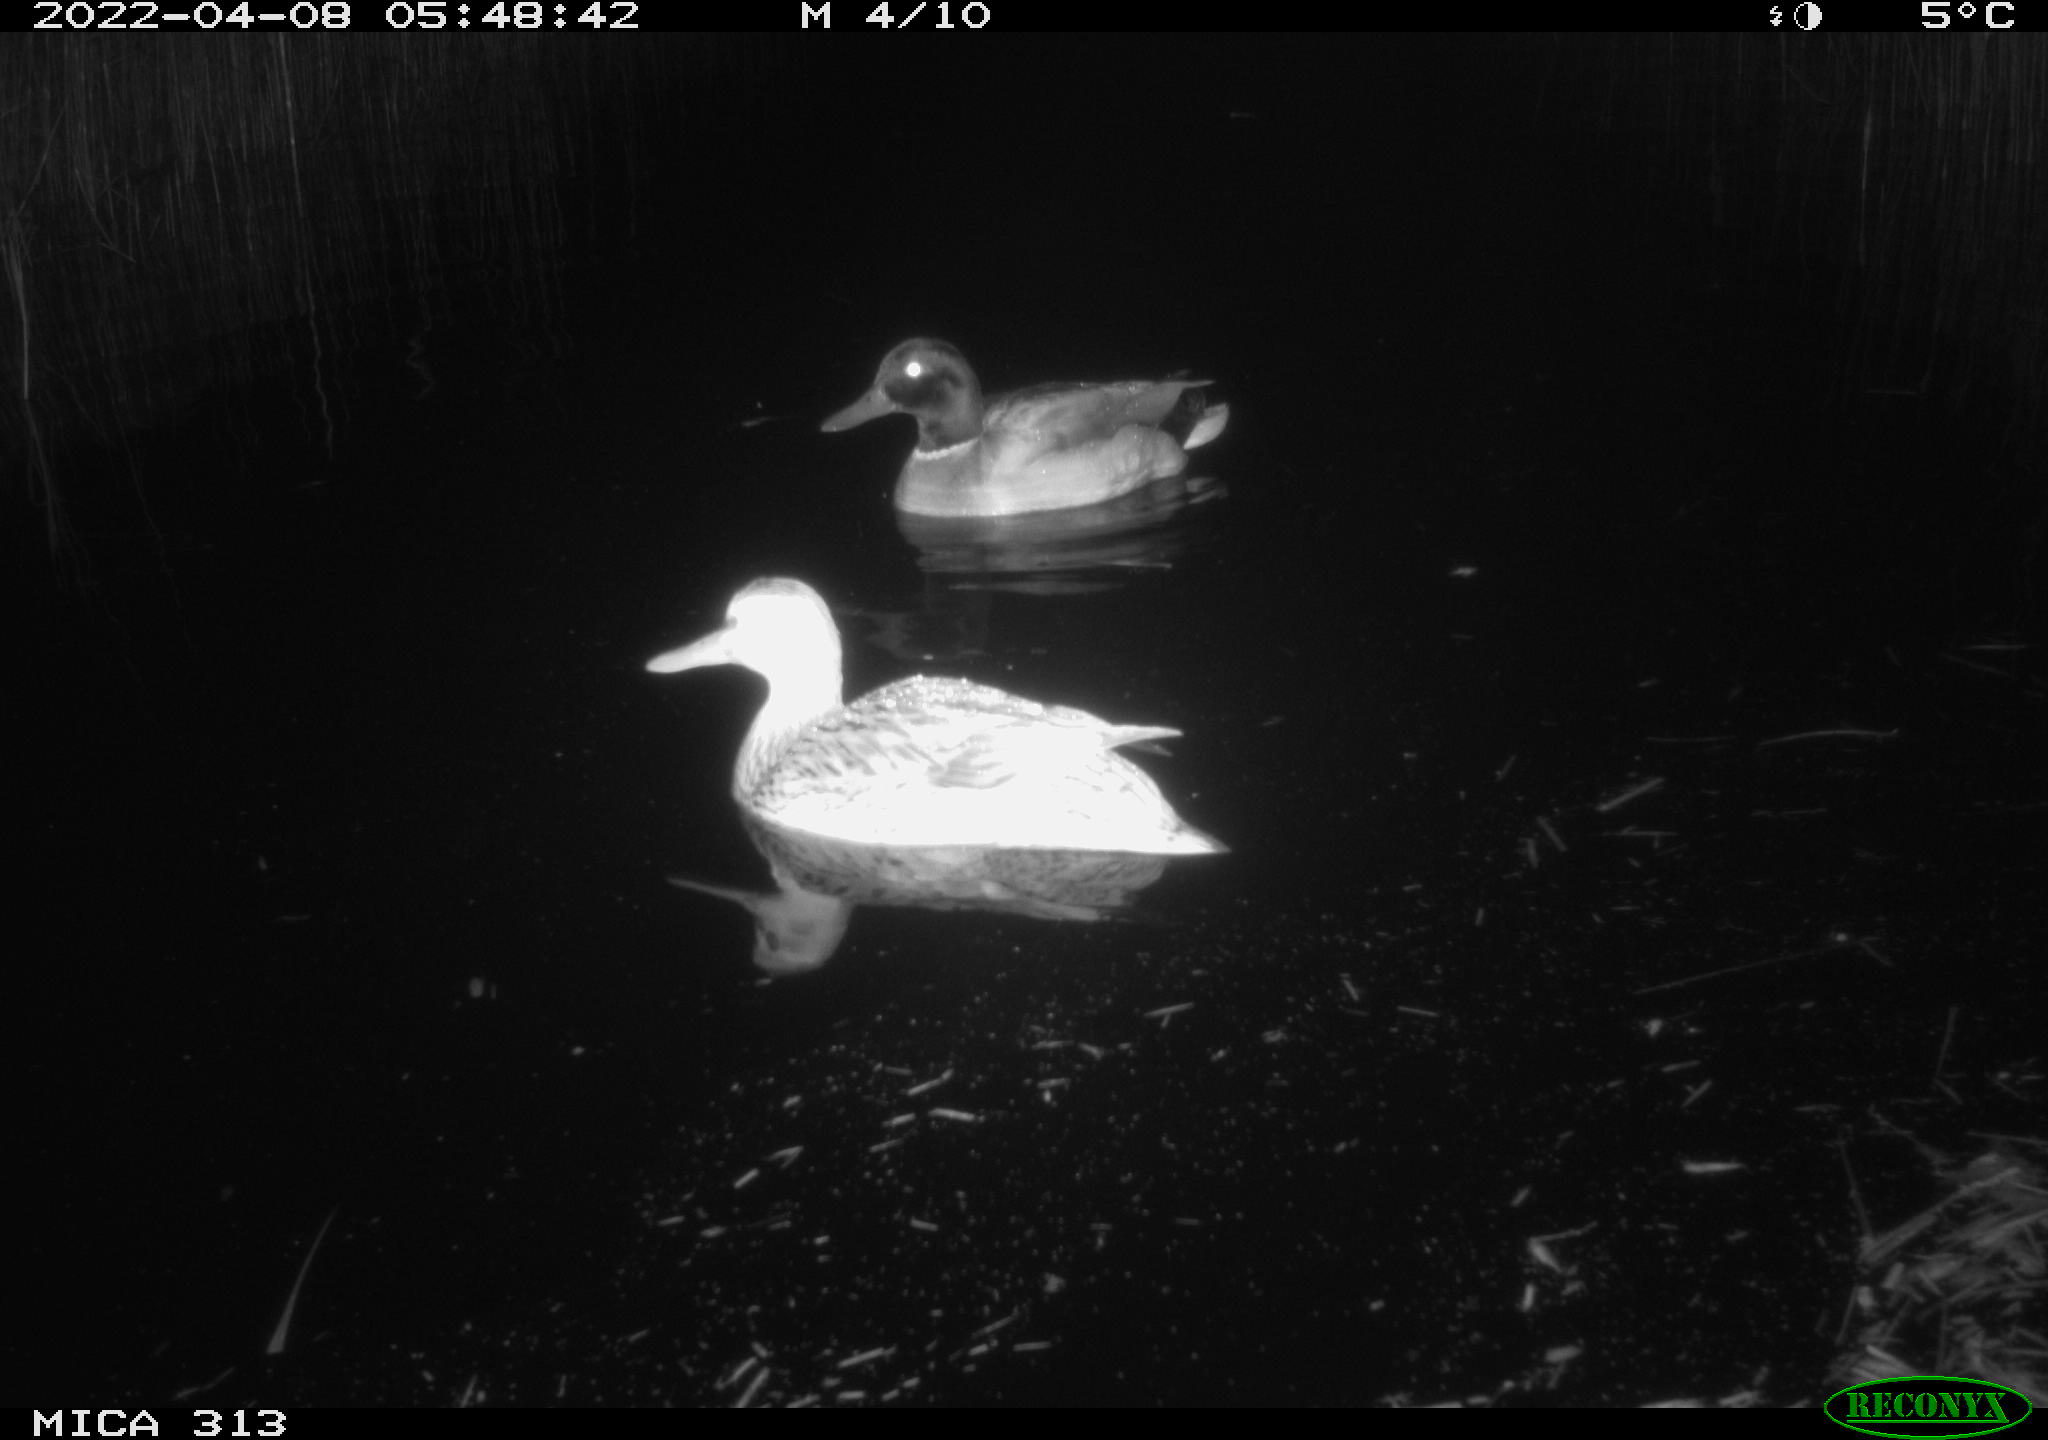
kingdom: Animalia
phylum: Chordata
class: Aves
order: Anseriformes
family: Anatidae
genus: Anas
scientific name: Anas platyrhynchos
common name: Mallard
